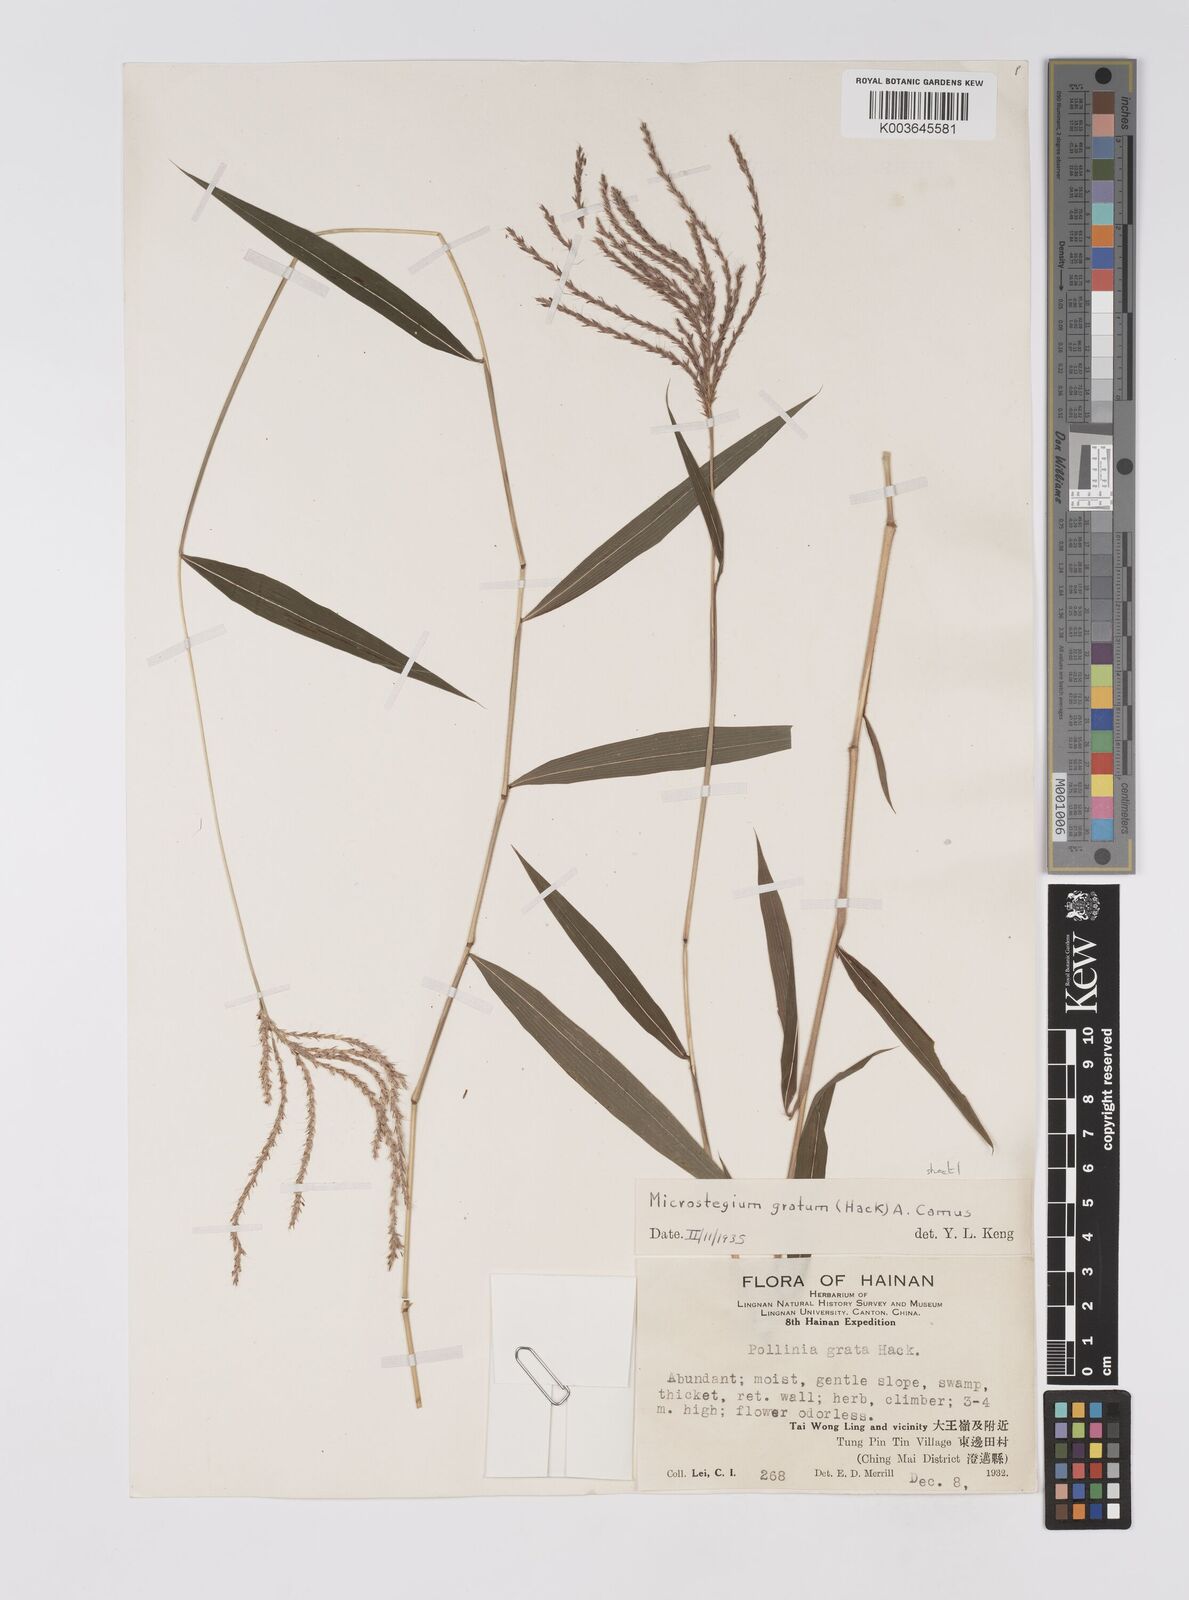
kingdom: Plantae
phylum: Tracheophyta
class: Liliopsida
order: Poales
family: Poaceae
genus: Microstegium
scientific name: Microstegium fasciculatum
